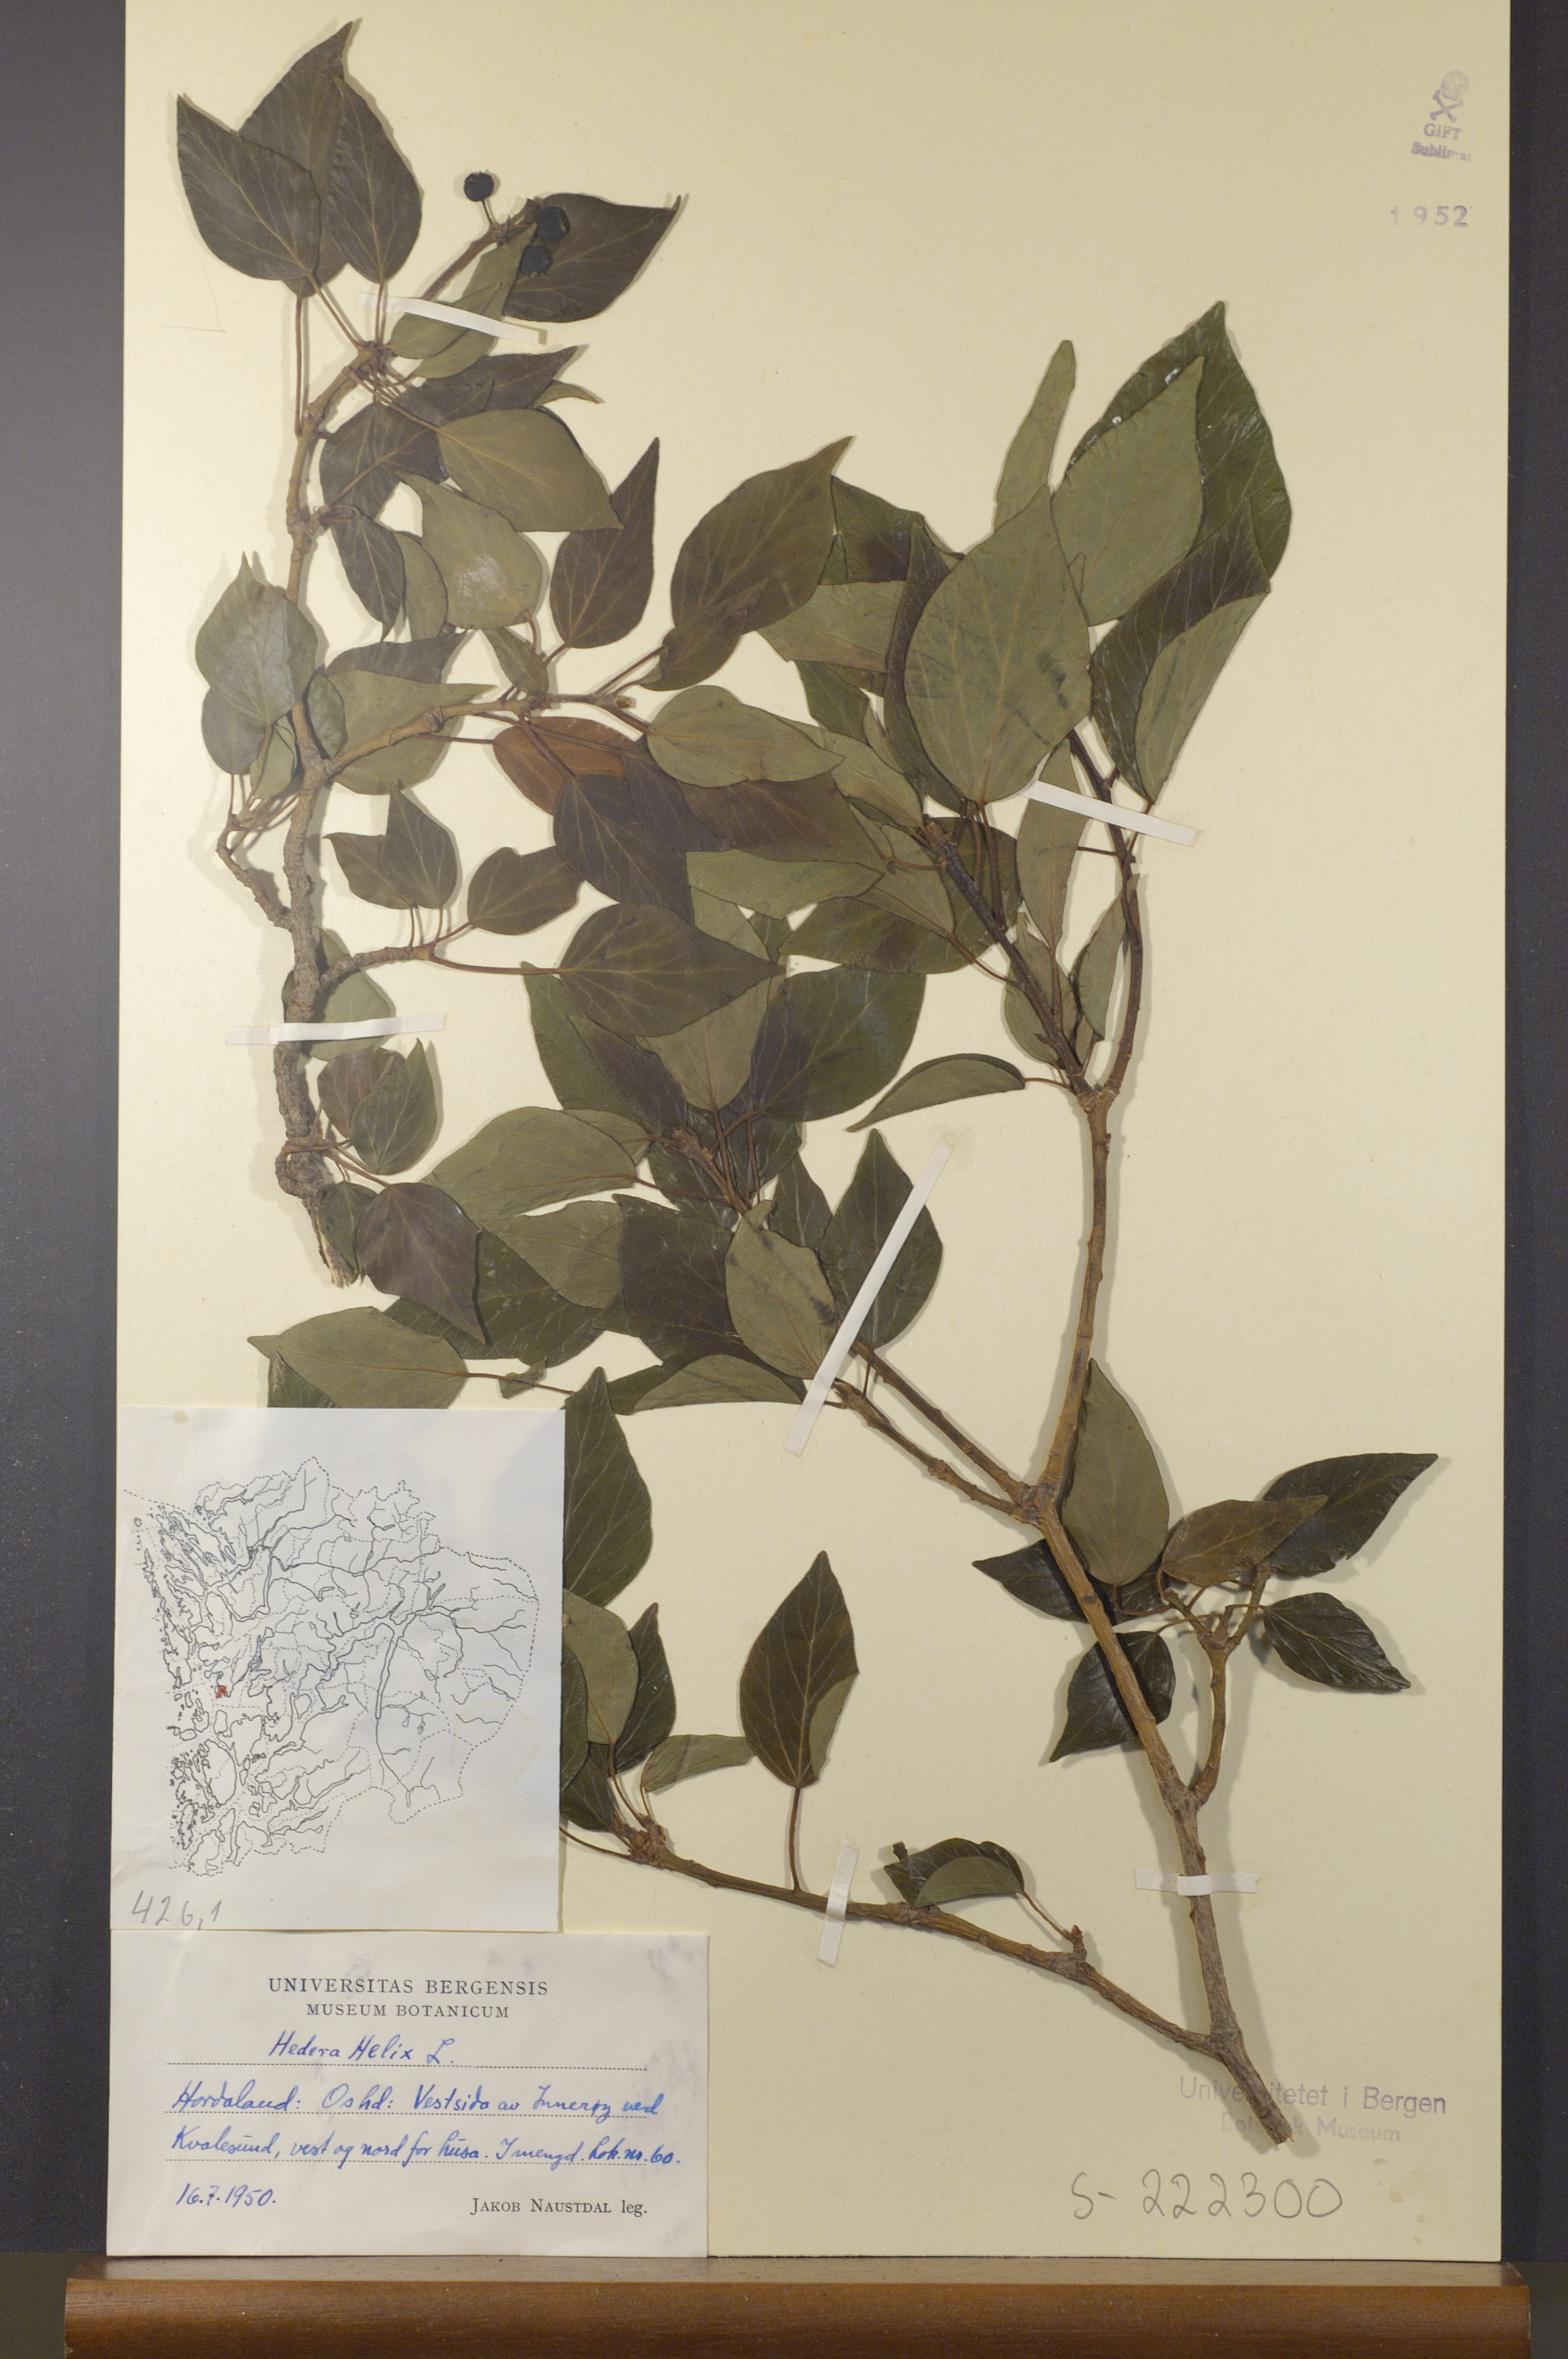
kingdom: Plantae
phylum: Tracheophyta
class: Magnoliopsida
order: Apiales
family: Araliaceae
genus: Hedera
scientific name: Hedera helix
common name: Ivy
